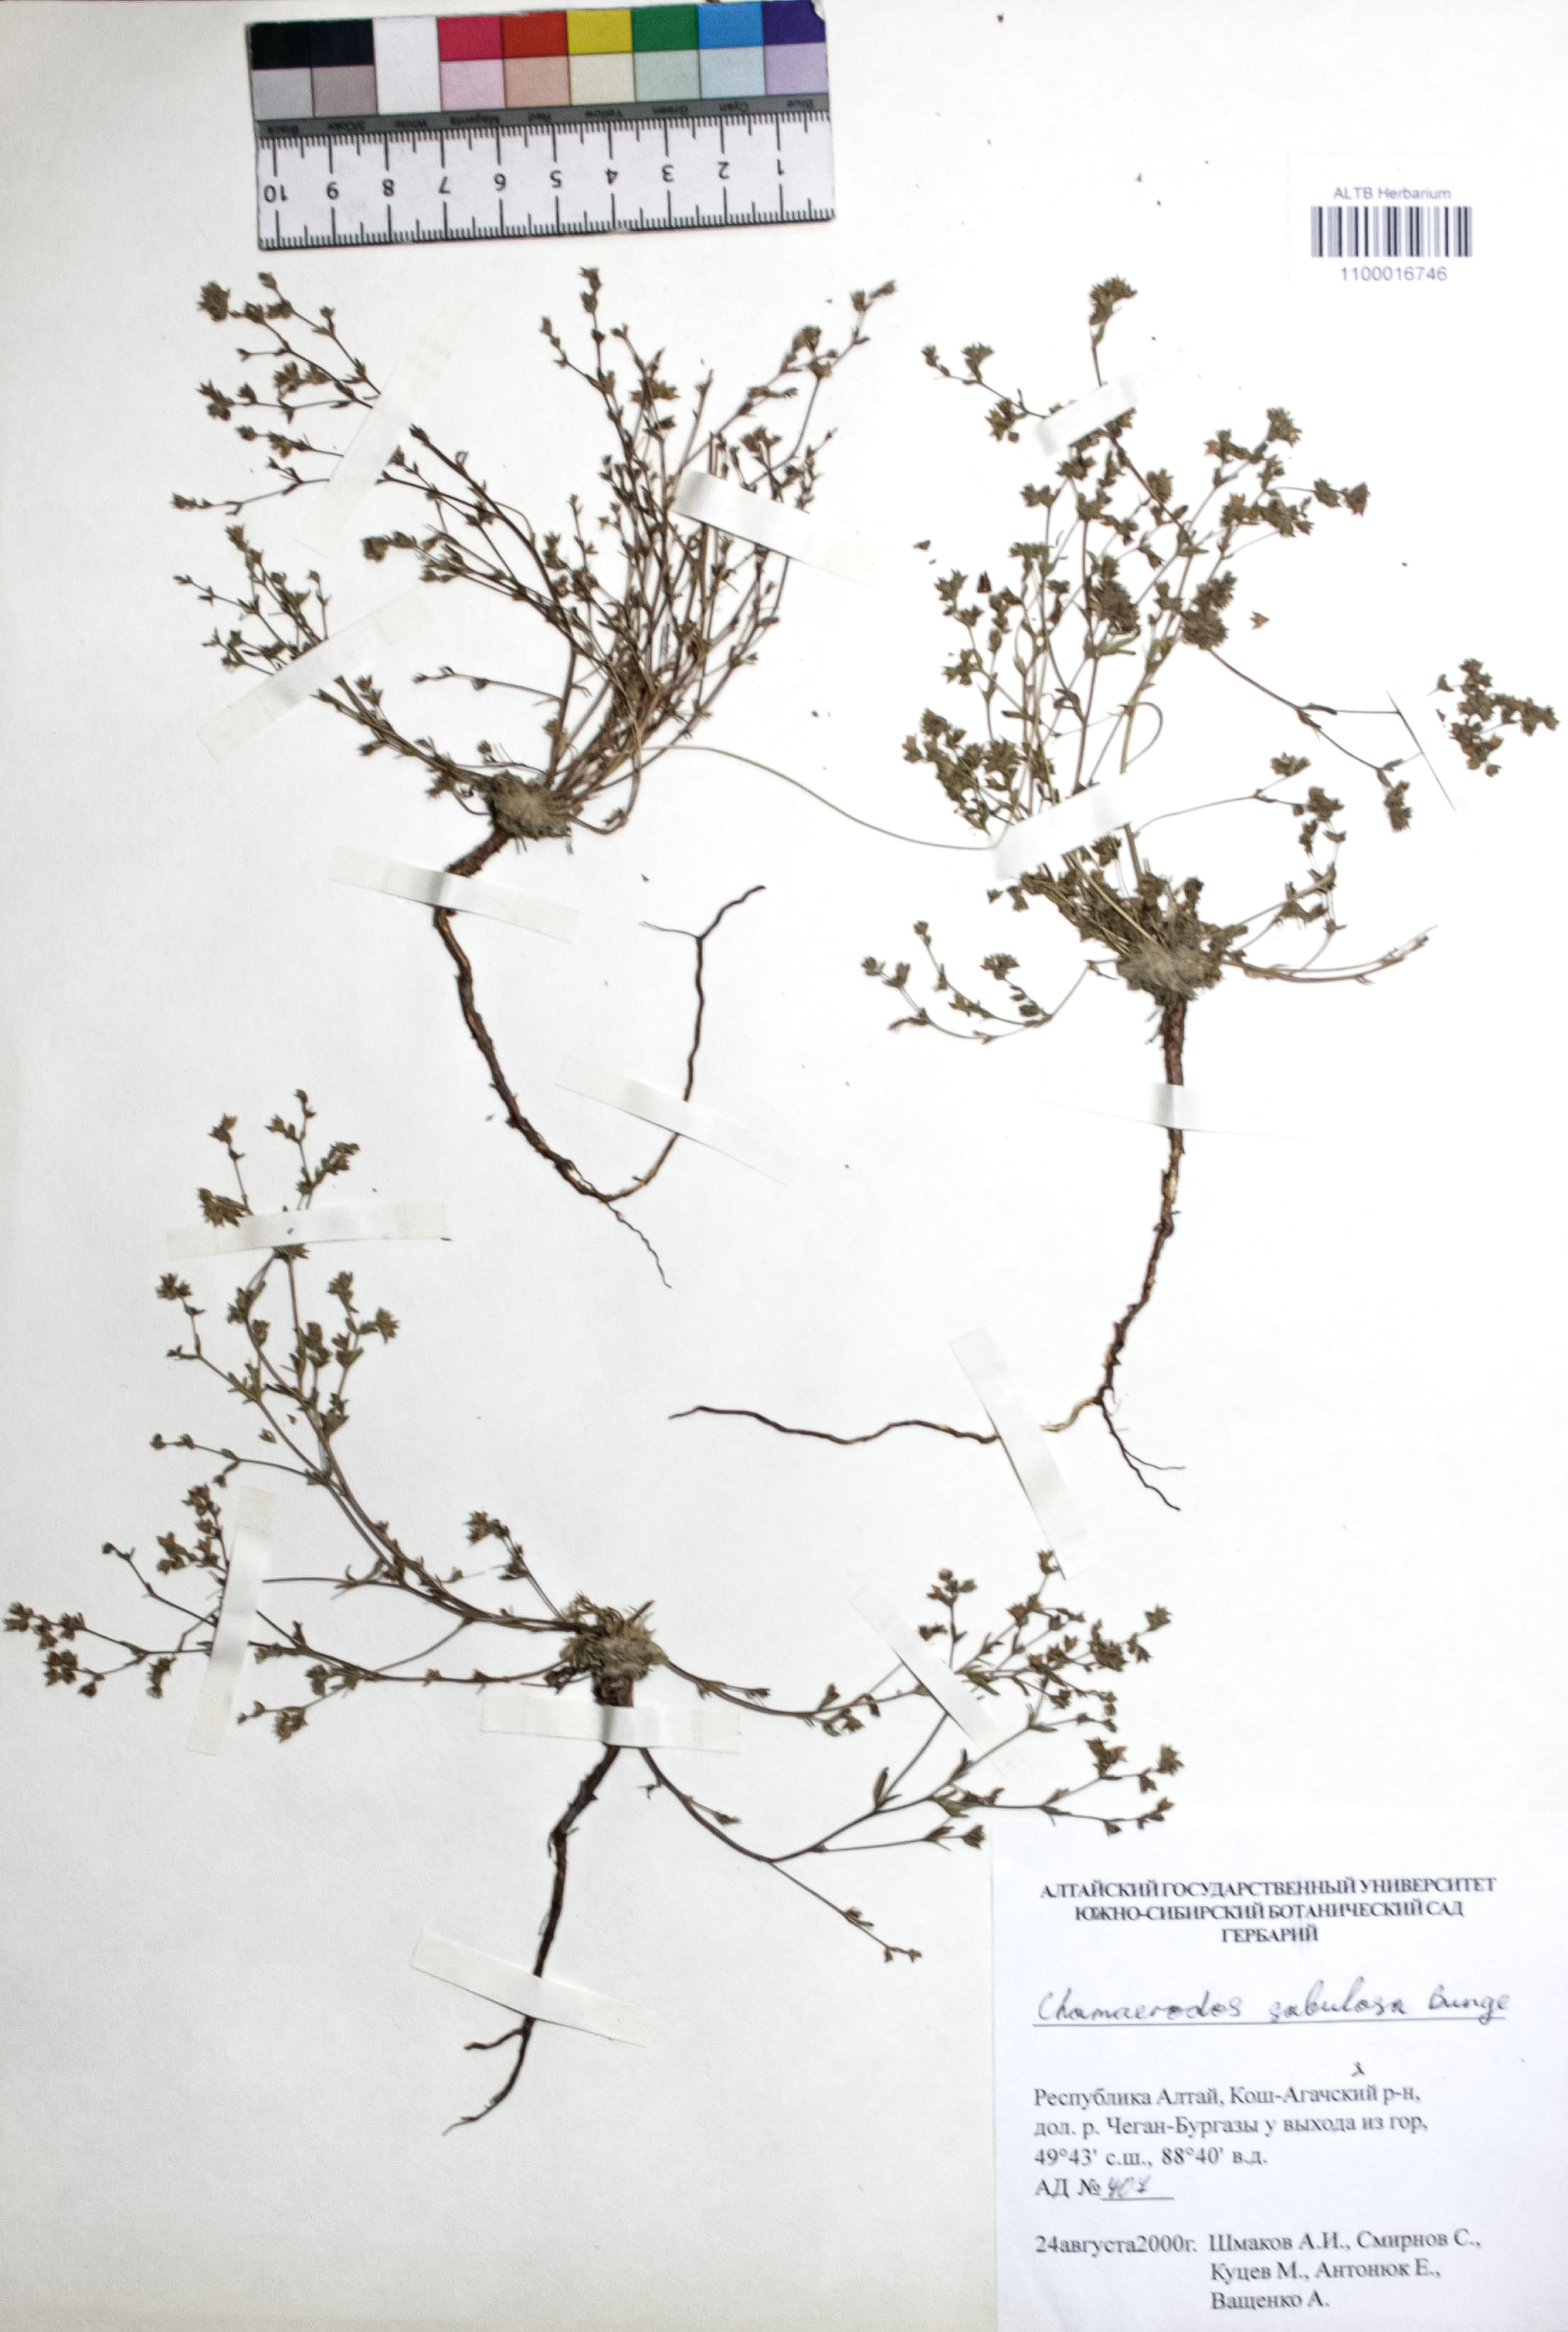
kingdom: Plantae
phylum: Tracheophyta
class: Magnoliopsida
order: Rosales
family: Rosaceae
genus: Chamaerhodos
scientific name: Chamaerhodos sabulosa
